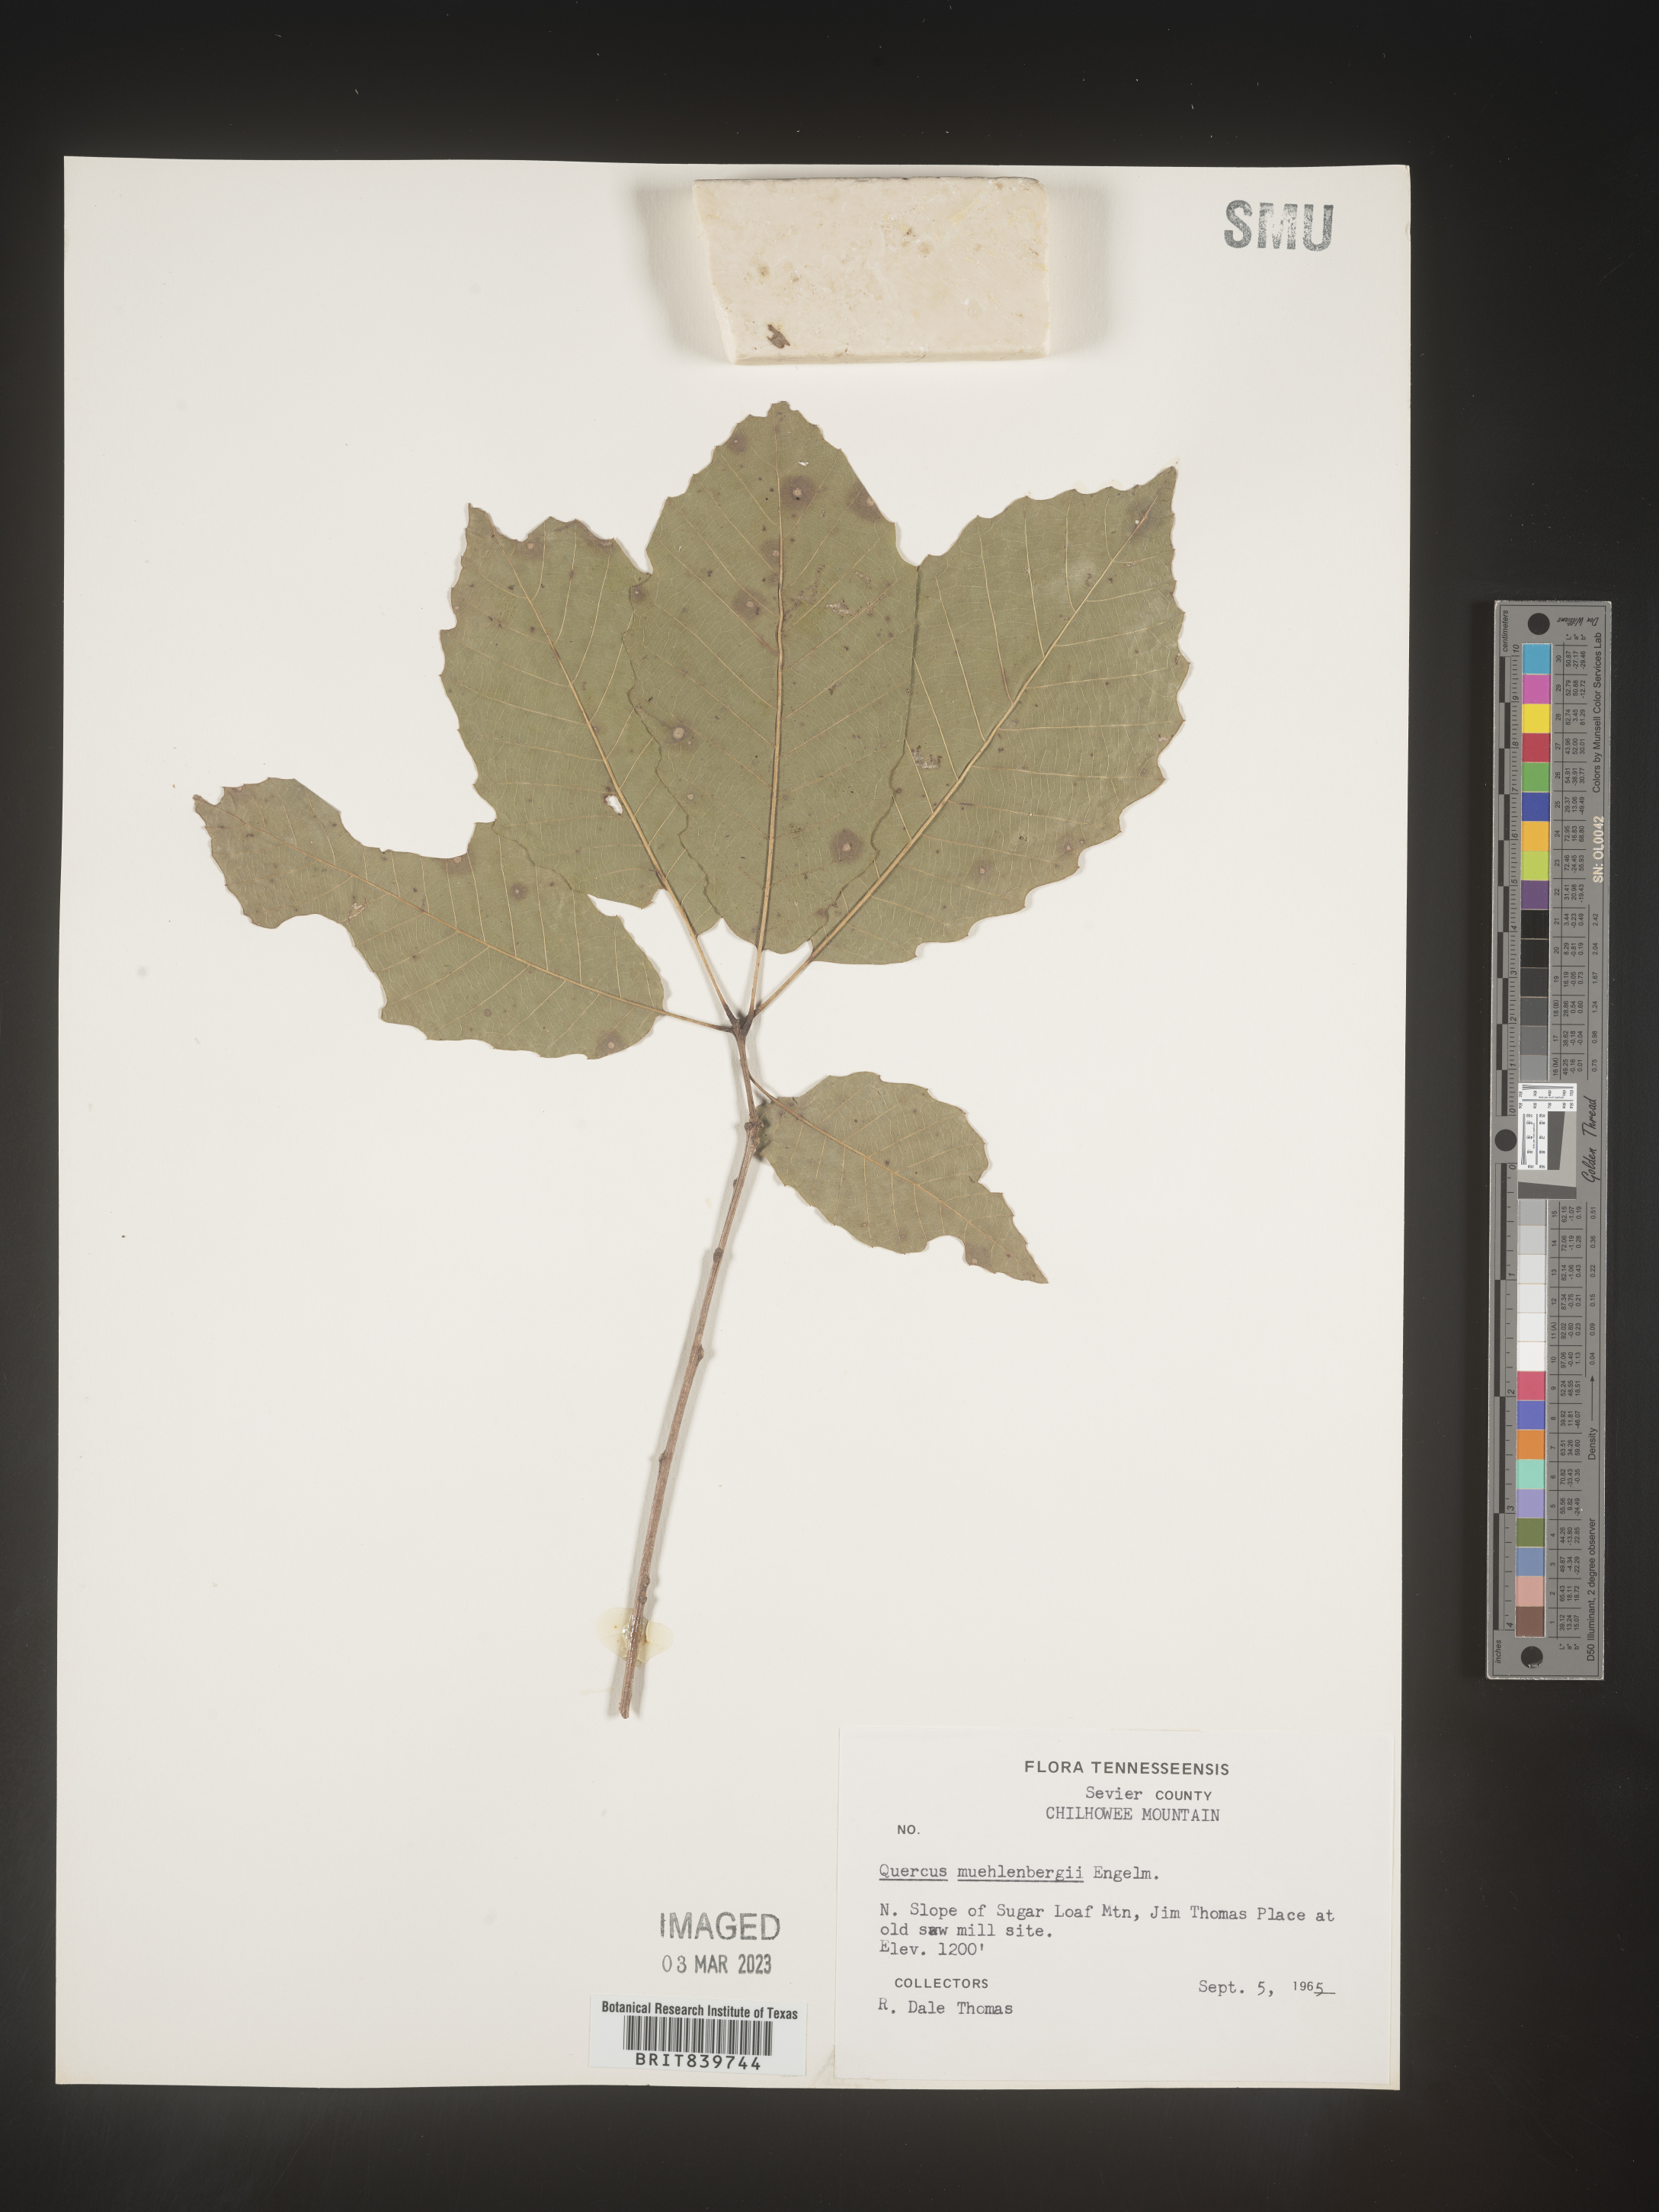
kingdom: Plantae
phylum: Tracheophyta
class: Magnoliopsida
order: Fagales
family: Fagaceae
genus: Quercus
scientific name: Quercus muehlenbergii
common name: Chinkapin oak
